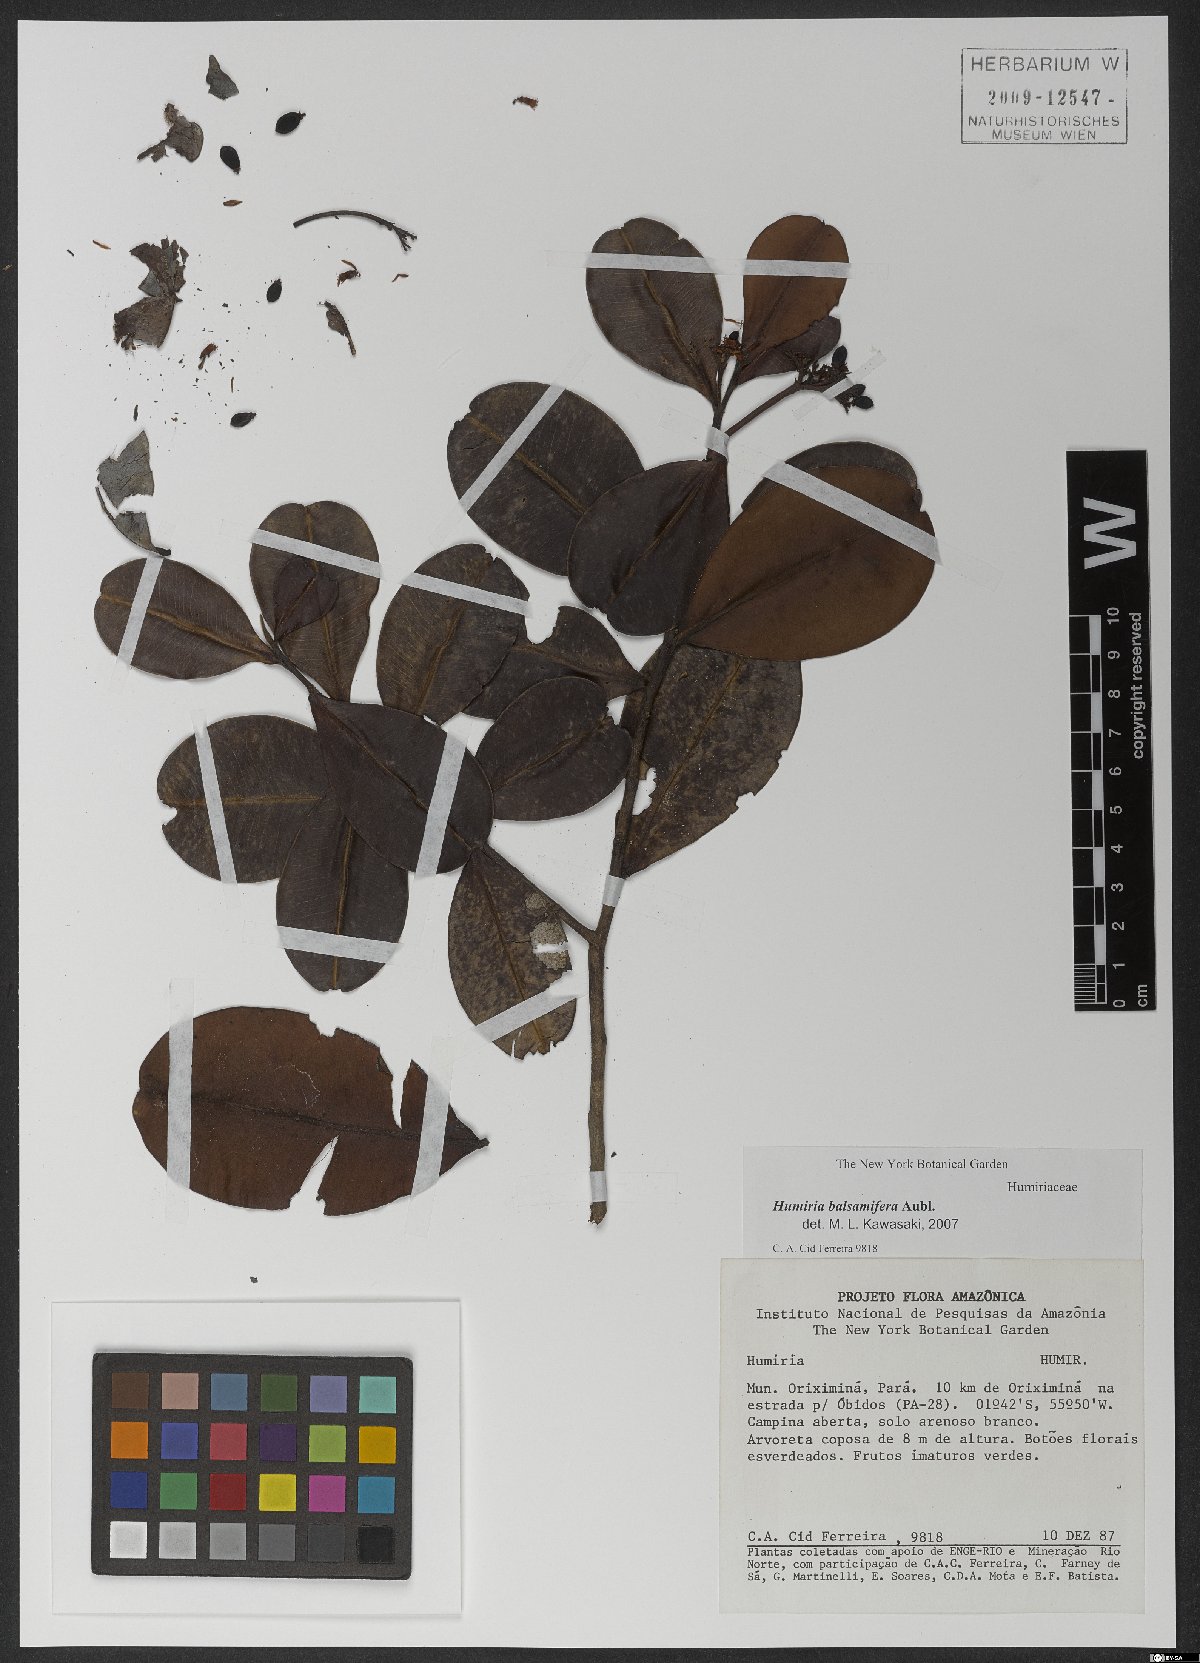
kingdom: Plantae
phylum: Tracheophyta
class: Magnoliopsida
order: Malpighiales
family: Humiriaceae
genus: Humiria
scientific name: Humiria balsamifera
